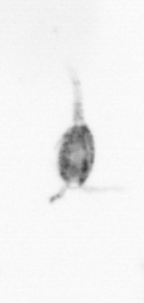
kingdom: Animalia
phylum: Arthropoda
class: Maxillopoda
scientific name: Maxillopoda
